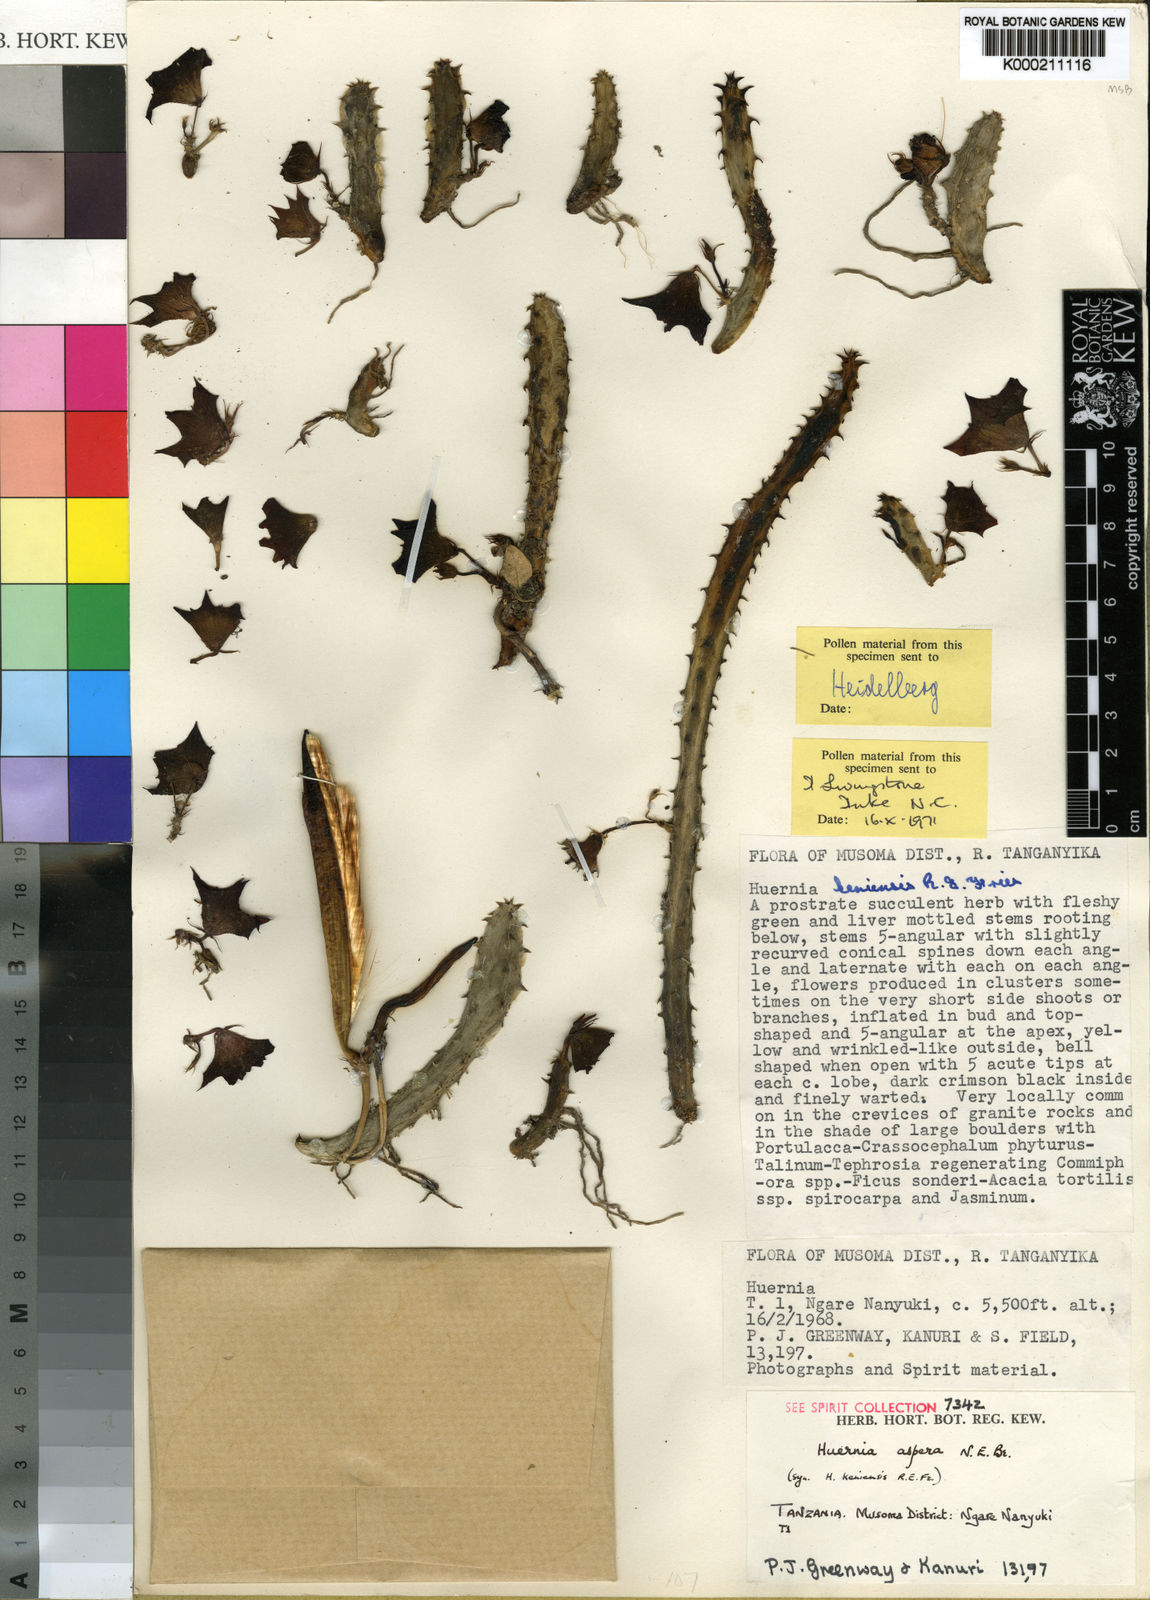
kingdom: Plantae
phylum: Tracheophyta
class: Magnoliopsida
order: Gentianales
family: Apocynaceae
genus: Ceropegia
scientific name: Ceropegia lenewtonii
